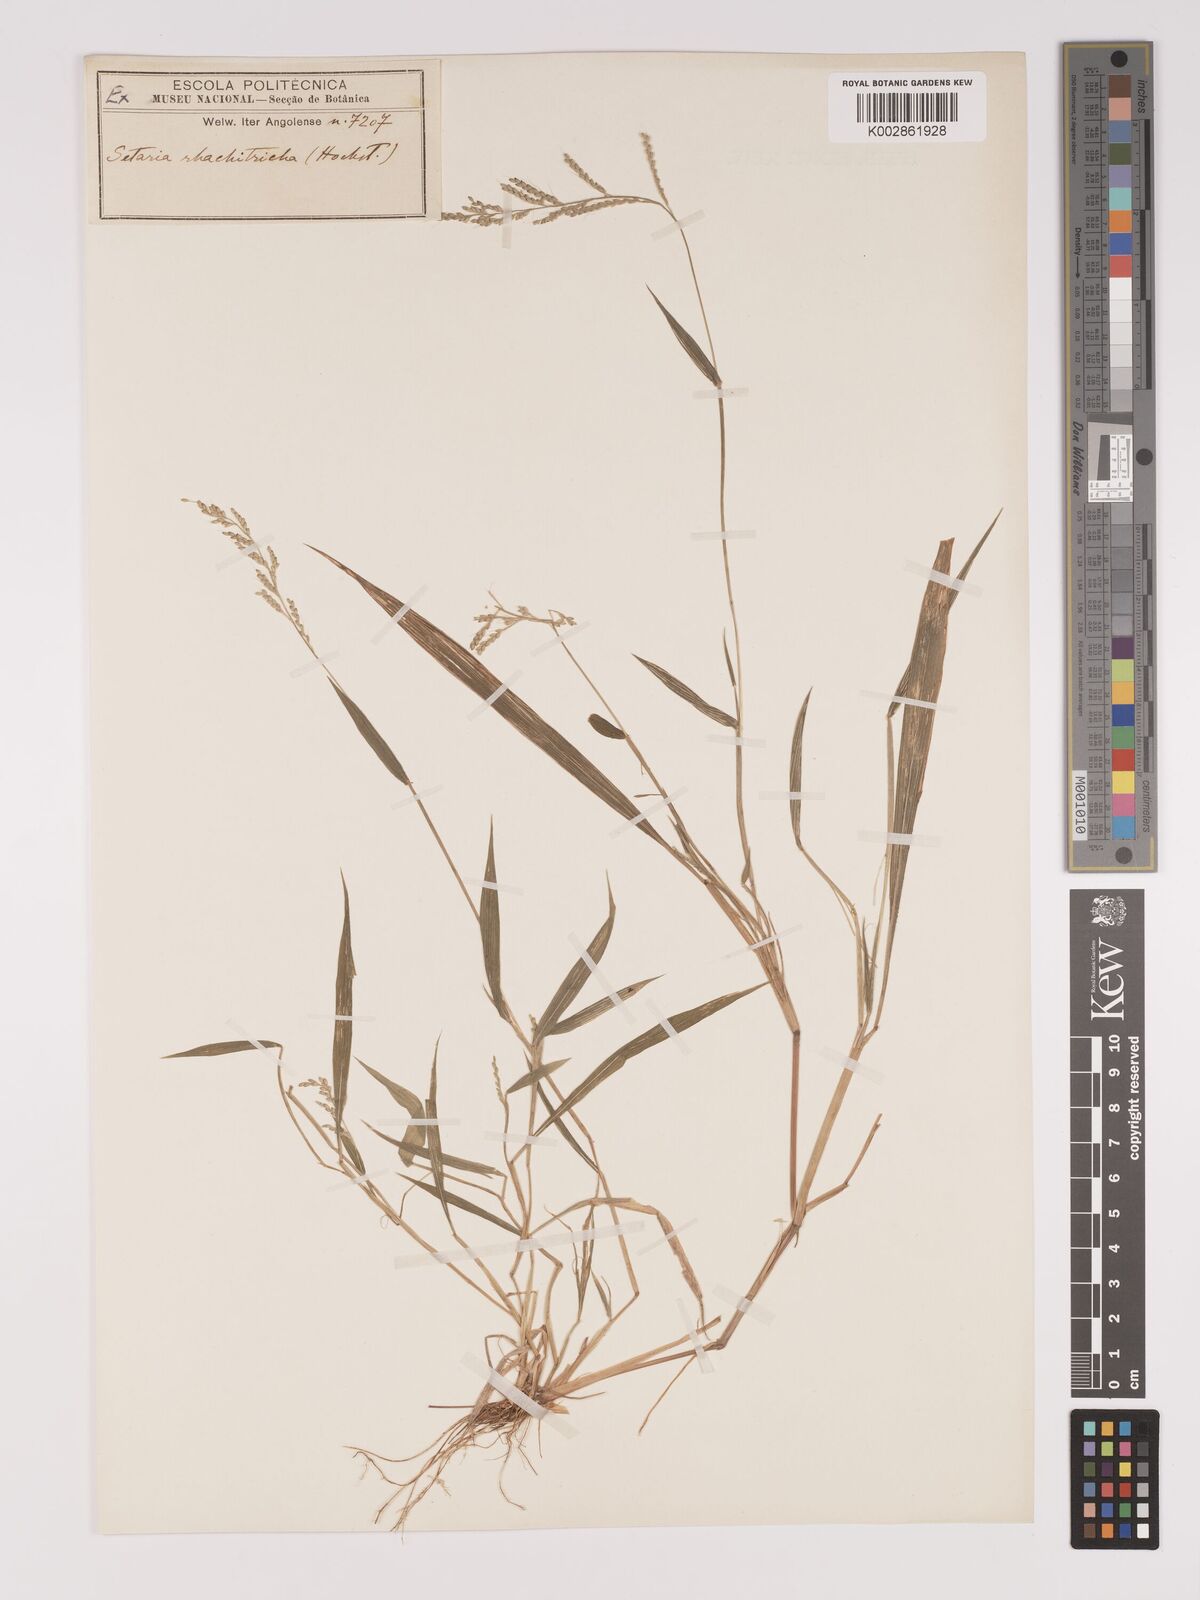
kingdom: Plantae
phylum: Tracheophyta
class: Liliopsida
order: Poales
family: Poaceae
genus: Setaria
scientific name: Setaria homonyma
